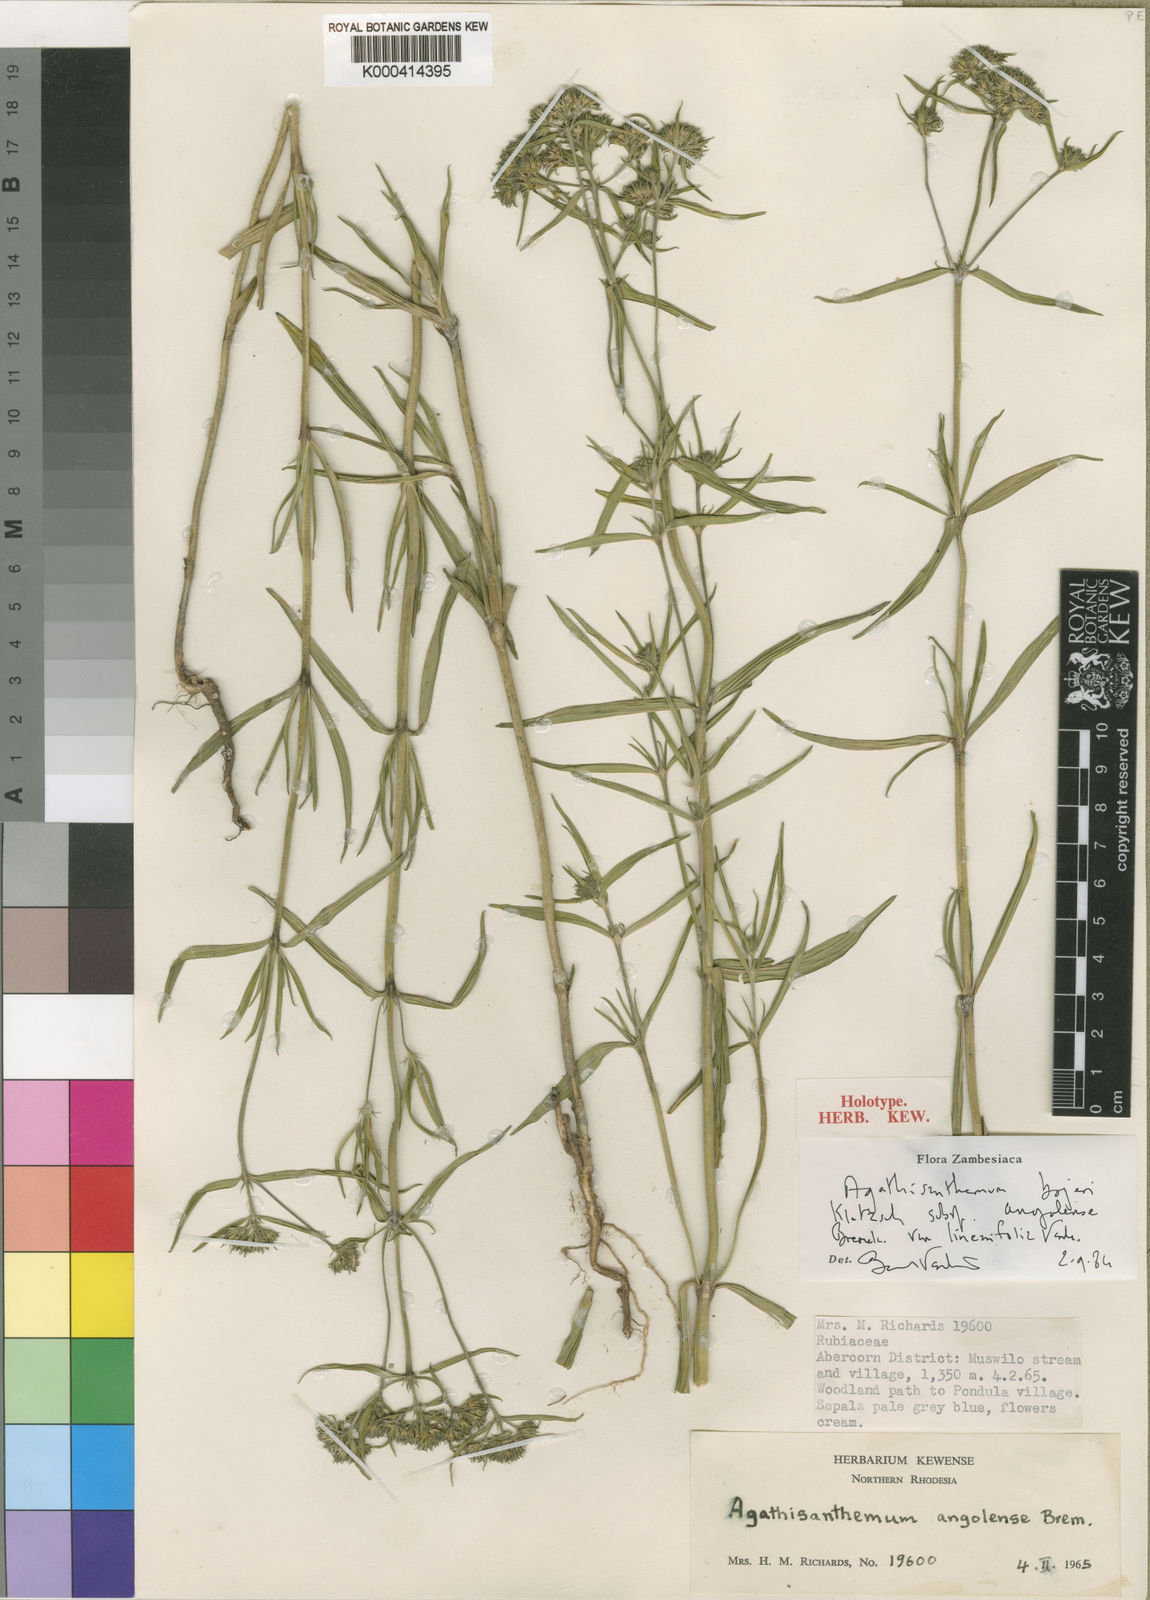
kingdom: Plantae
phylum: Tracheophyta
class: Magnoliopsida
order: Gentianales
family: Rubiaceae
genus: Agathisanthemum
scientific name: Agathisanthemum bojeri
